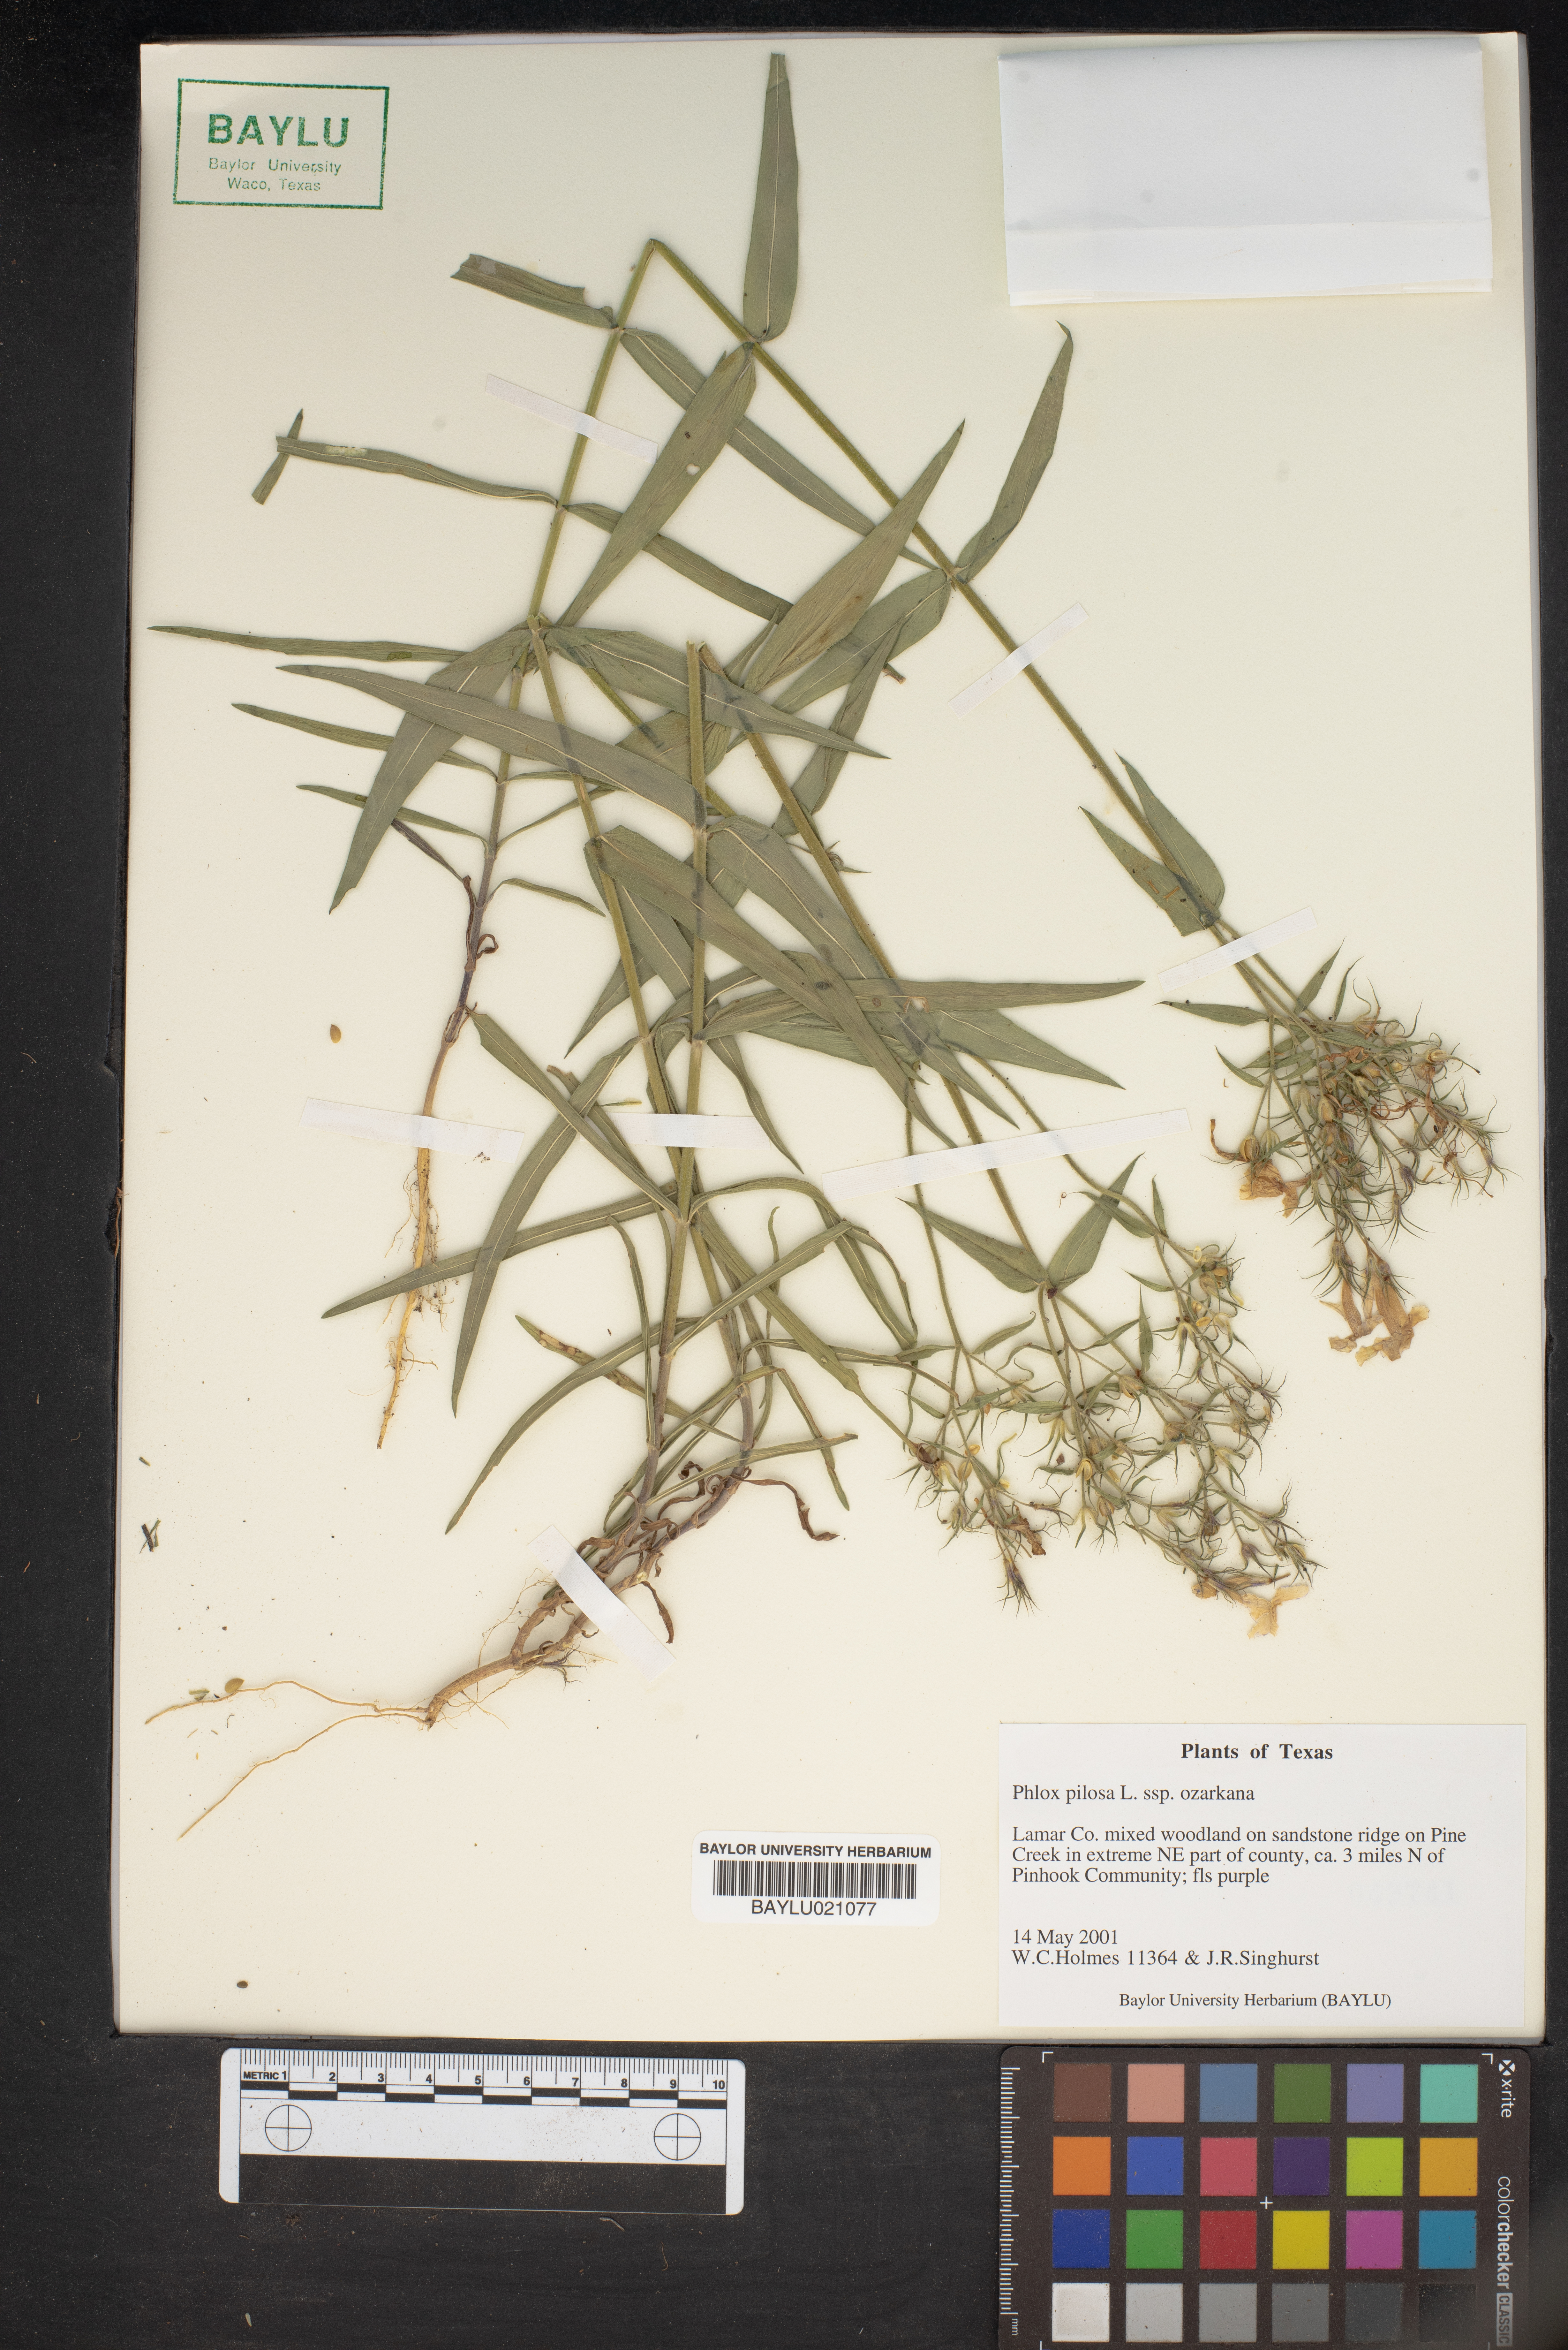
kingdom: Plantae
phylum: Tracheophyta
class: Magnoliopsida
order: Ericales
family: Polemoniaceae
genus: Phlox
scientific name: Phlox pilosa
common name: Prairie phlox
